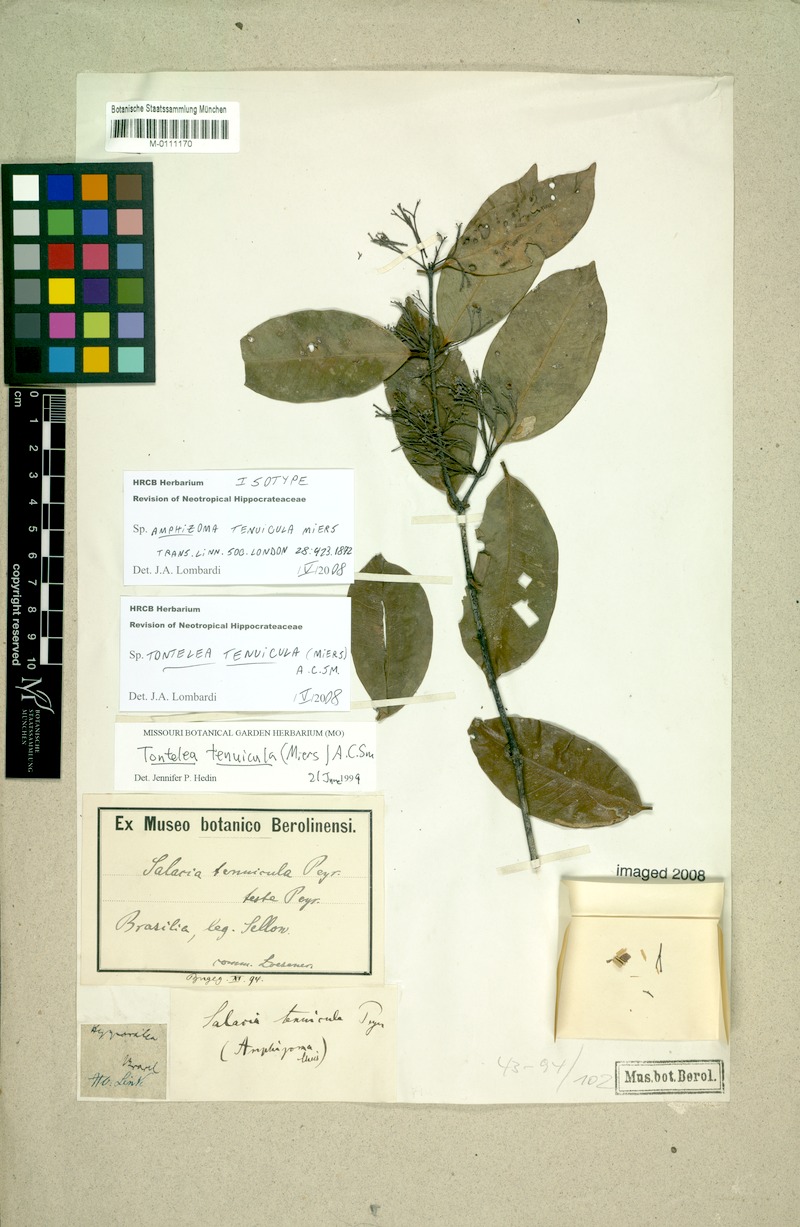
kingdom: Plantae
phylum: Tracheophyta
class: Magnoliopsida
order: Celastrales
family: Celastraceae
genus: Tontelea
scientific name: Tontelea tenuicula
